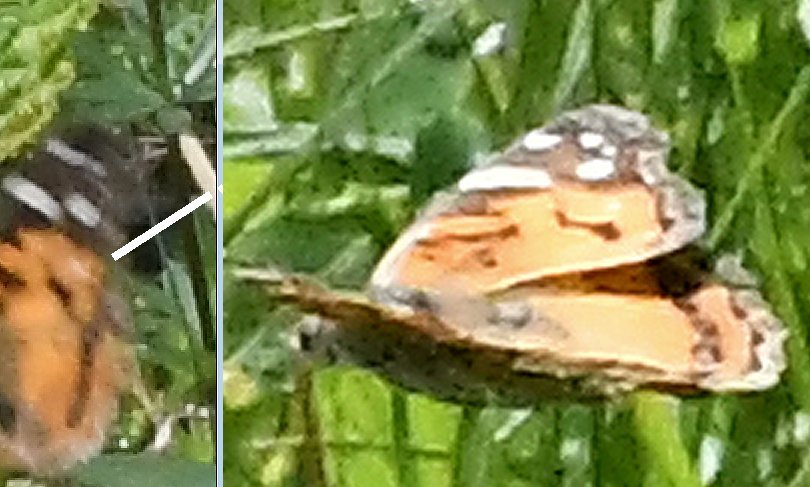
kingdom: Animalia
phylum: Arthropoda
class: Insecta
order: Lepidoptera
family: Nymphalidae
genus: Vanessa
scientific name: Vanessa virginiensis
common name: American Lady
